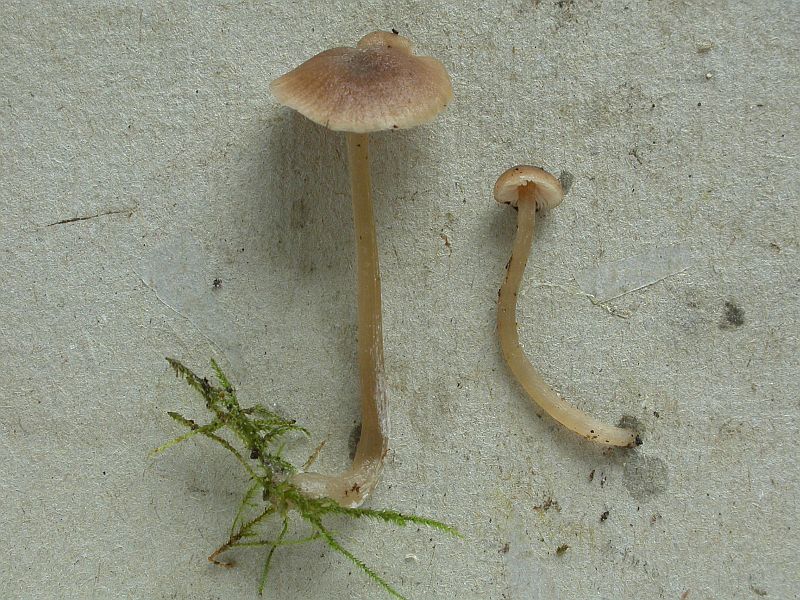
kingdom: Fungi
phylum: Basidiomycota
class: Agaricomycetes
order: Agaricales
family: Entolomataceae
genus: Entoloma
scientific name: Entoloma cetratum
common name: voks-rødblad
